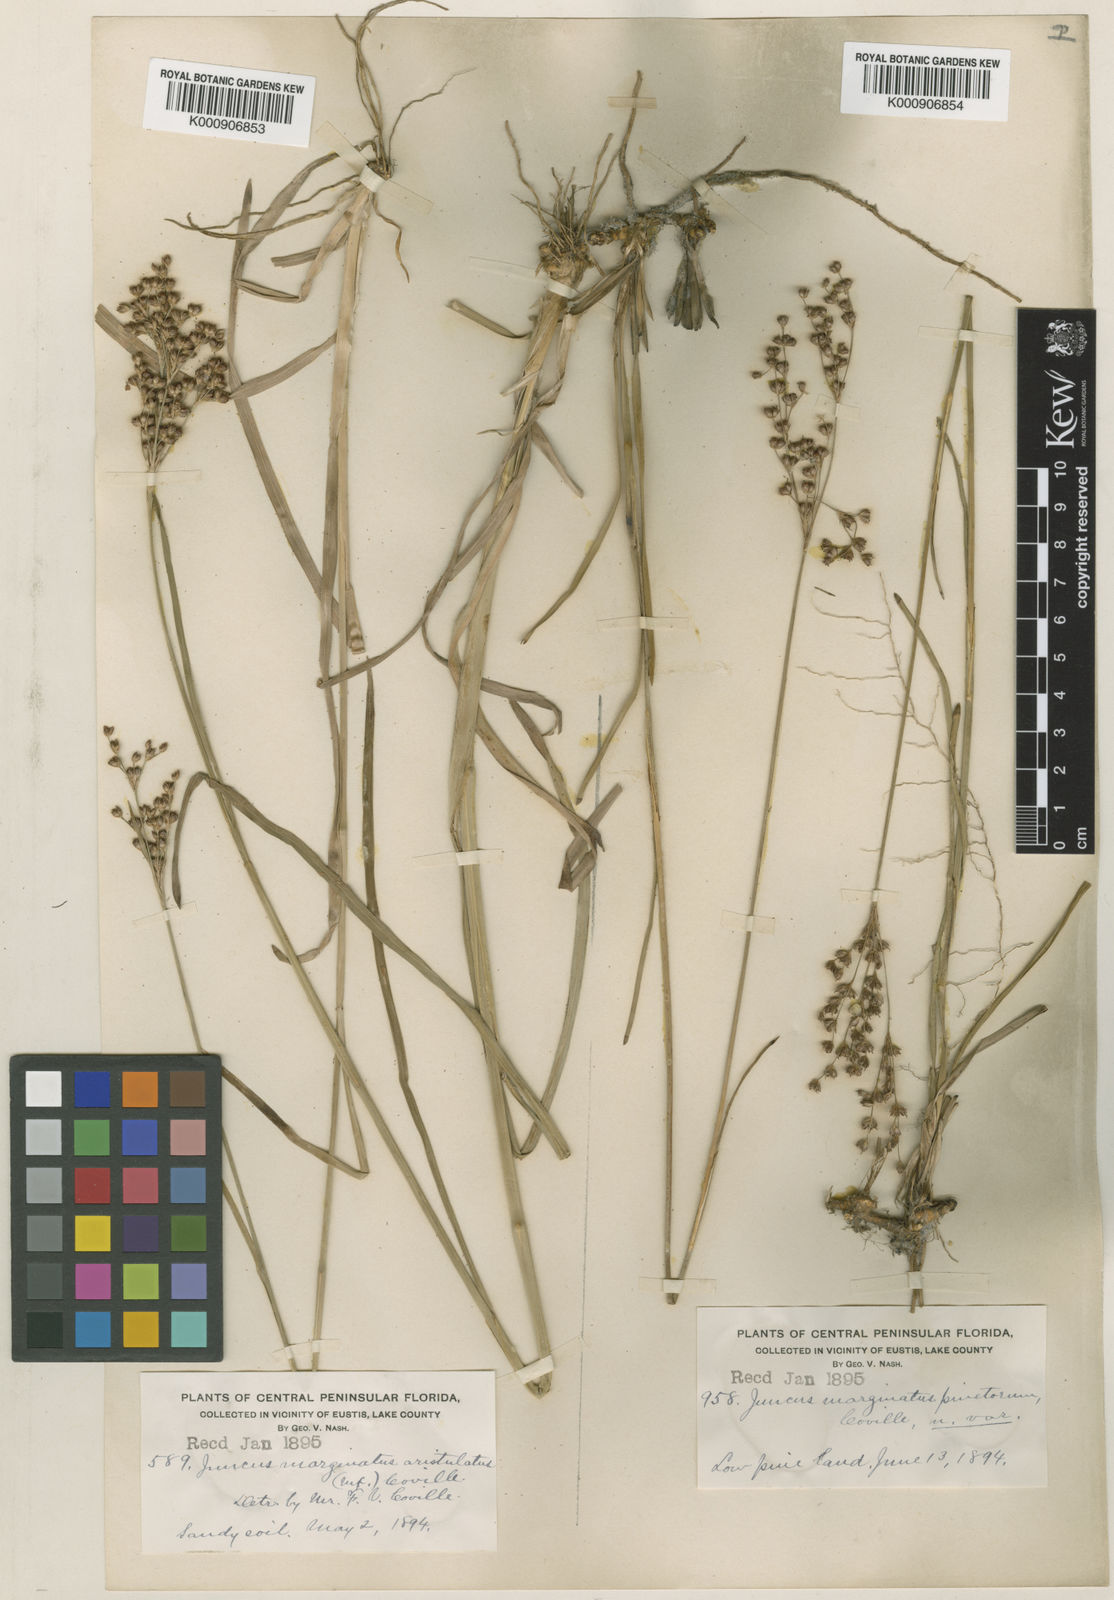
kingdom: Plantae
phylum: Tracheophyta
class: Liliopsida
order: Poales
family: Juncaceae
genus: Juncus
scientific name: Juncus marginatus
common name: Grass-leaf rush
